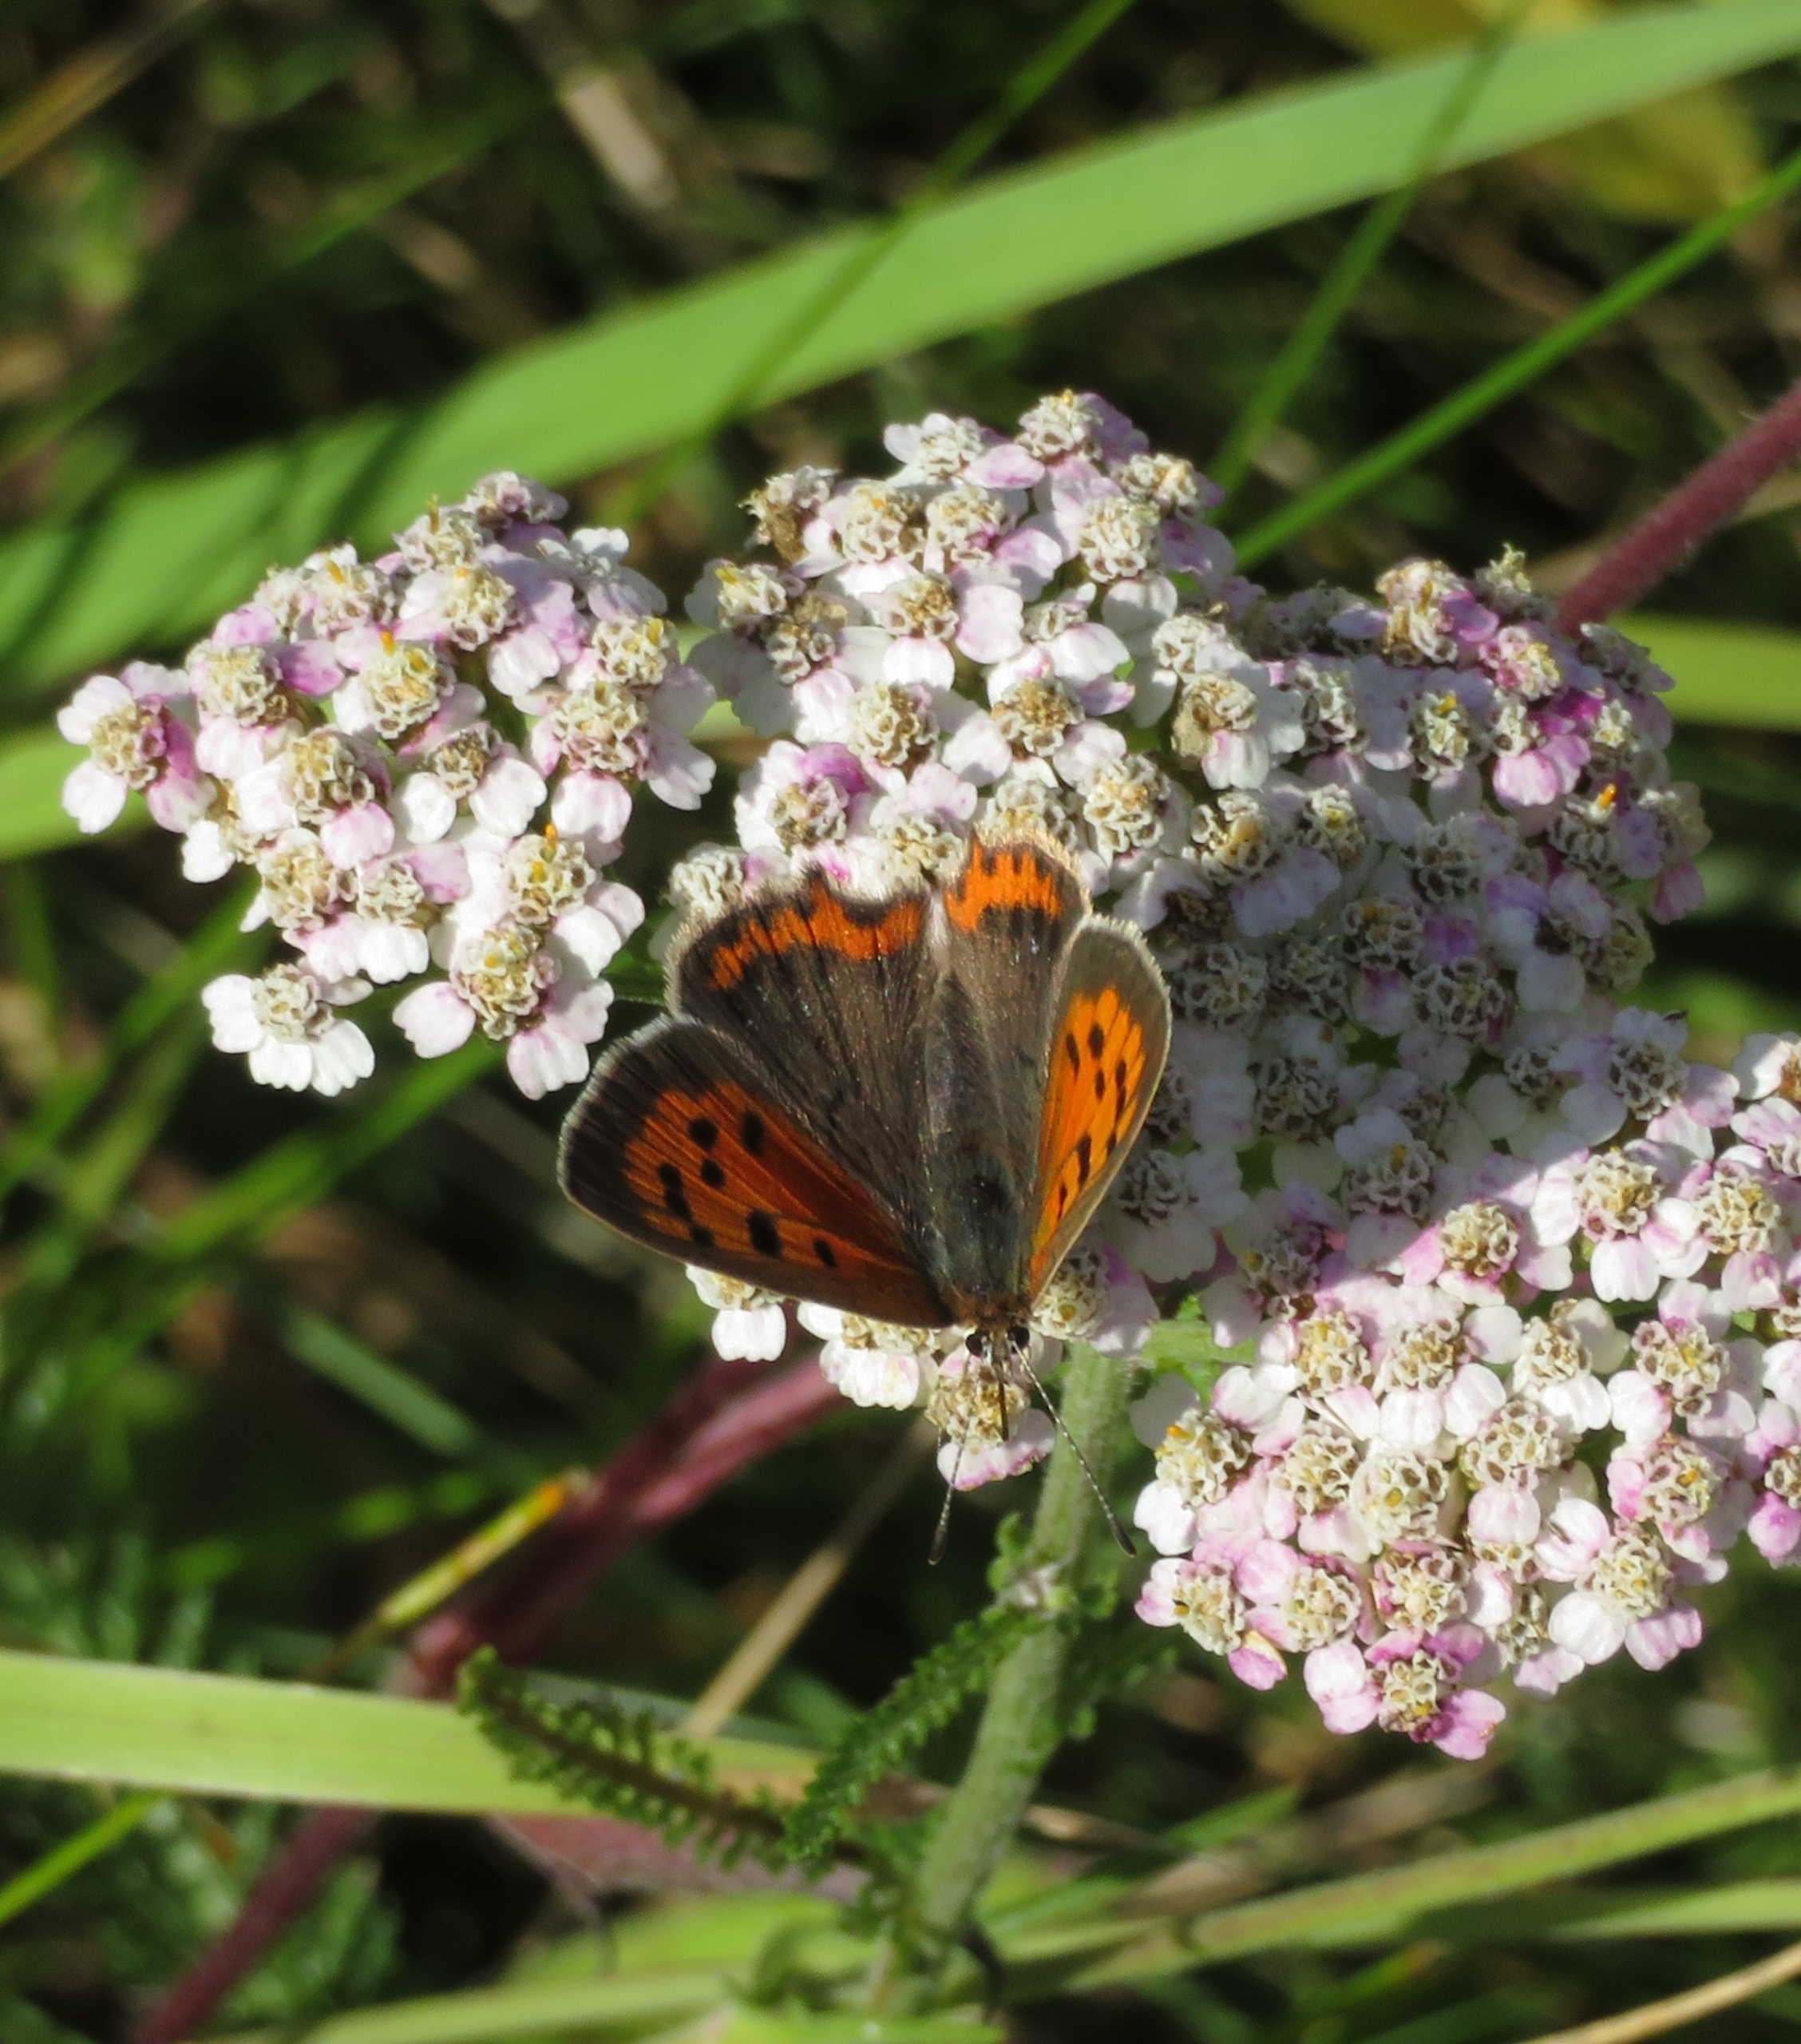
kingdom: Animalia
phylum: Arthropoda
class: Insecta
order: Lepidoptera
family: Lycaenidae
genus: Lycaena
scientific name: Lycaena phlaeas
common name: Lille ildfugl
